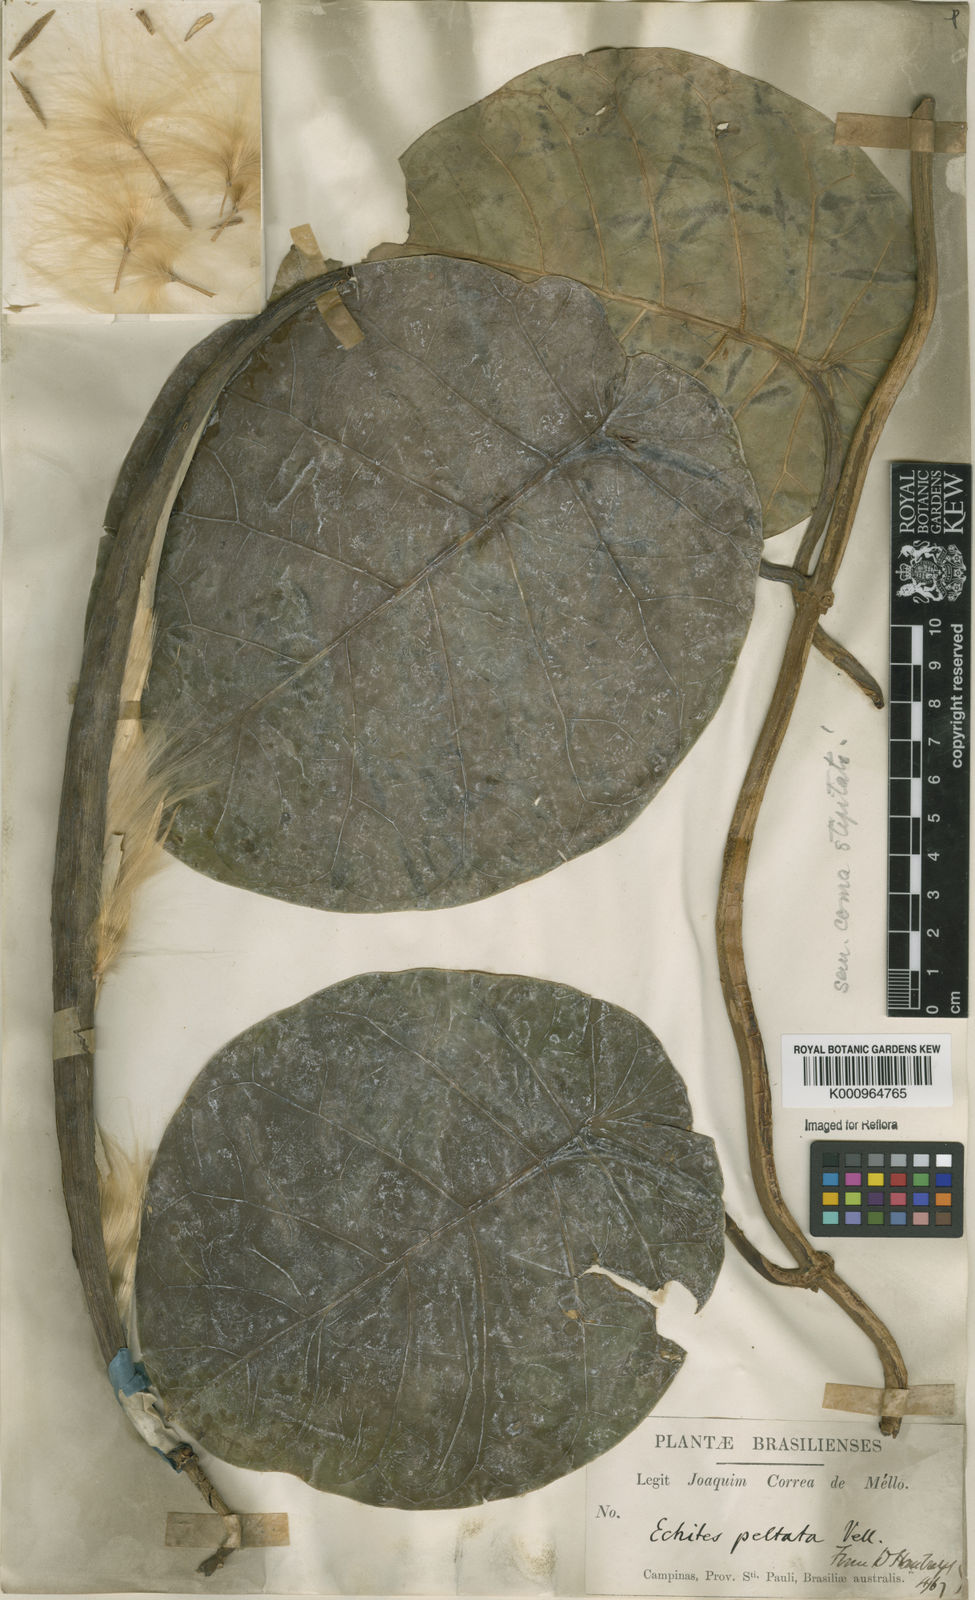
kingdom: Plantae
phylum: Tracheophyta
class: Magnoliopsida
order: Gentianales
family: Apocynaceae
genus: Macropharynx
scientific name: Macropharynx peltata
